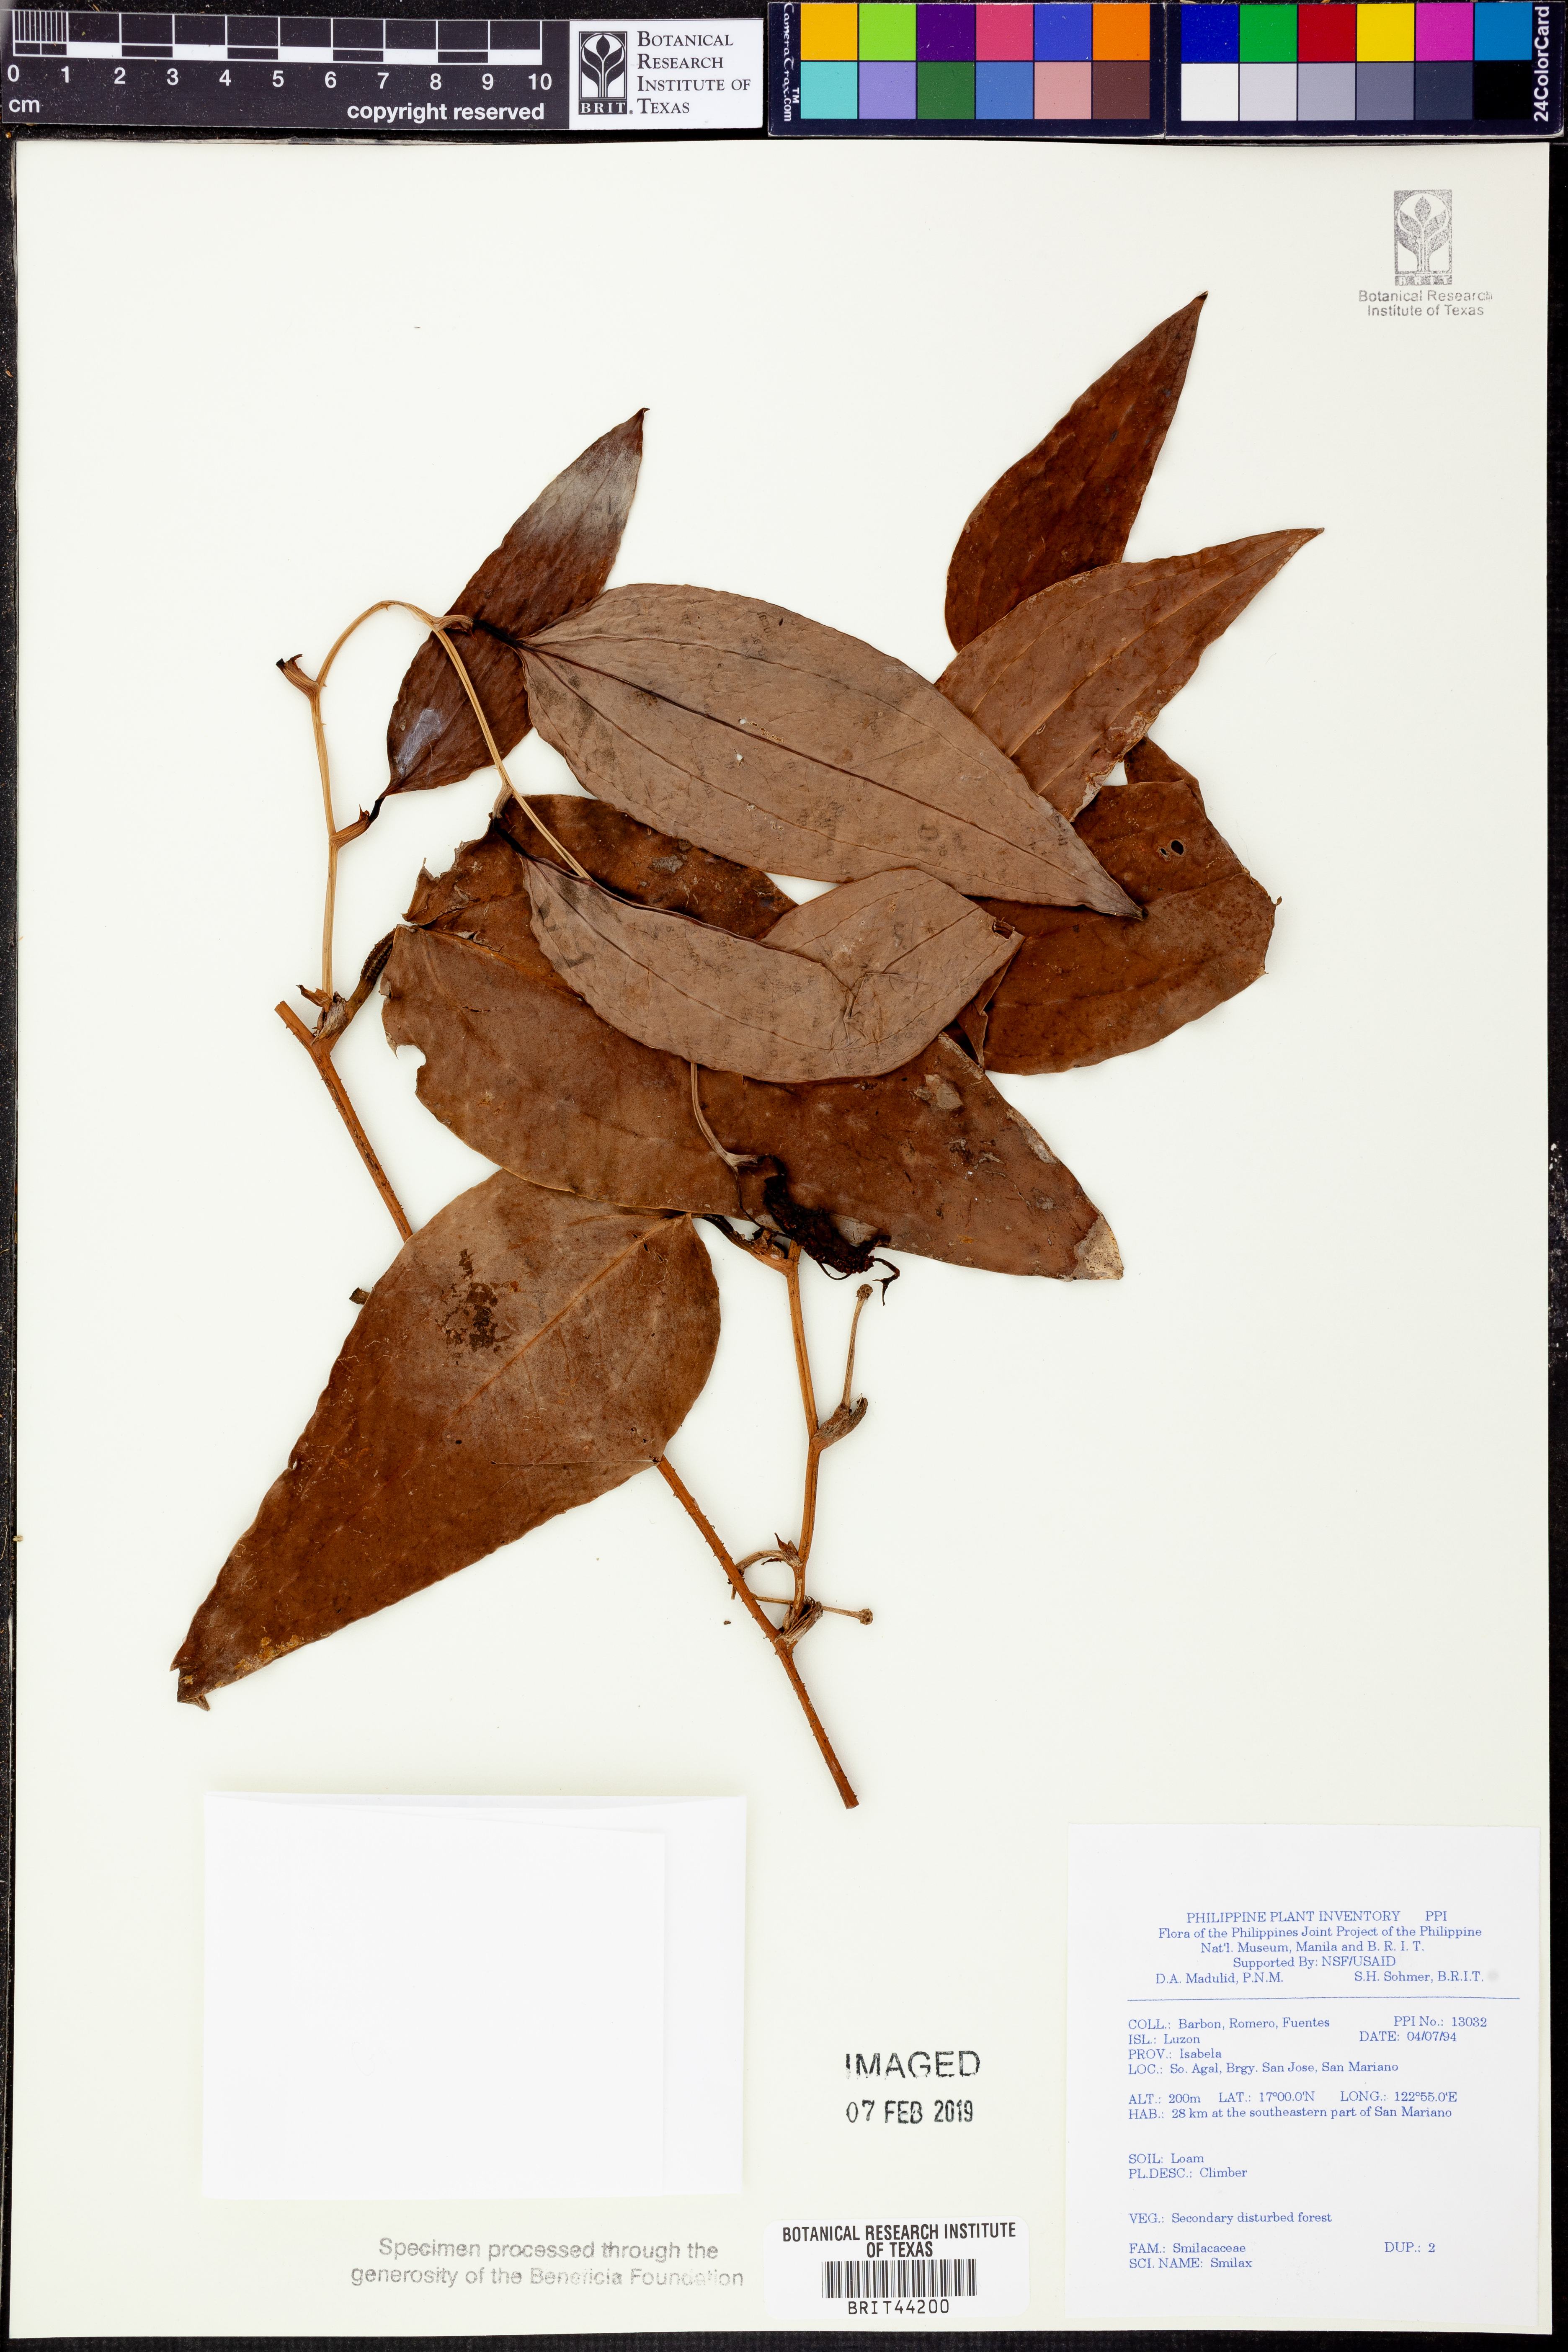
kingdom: Plantae
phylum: Tracheophyta
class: Liliopsida
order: Liliales
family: Smilacaceae
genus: Smilax
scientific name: Smilax
